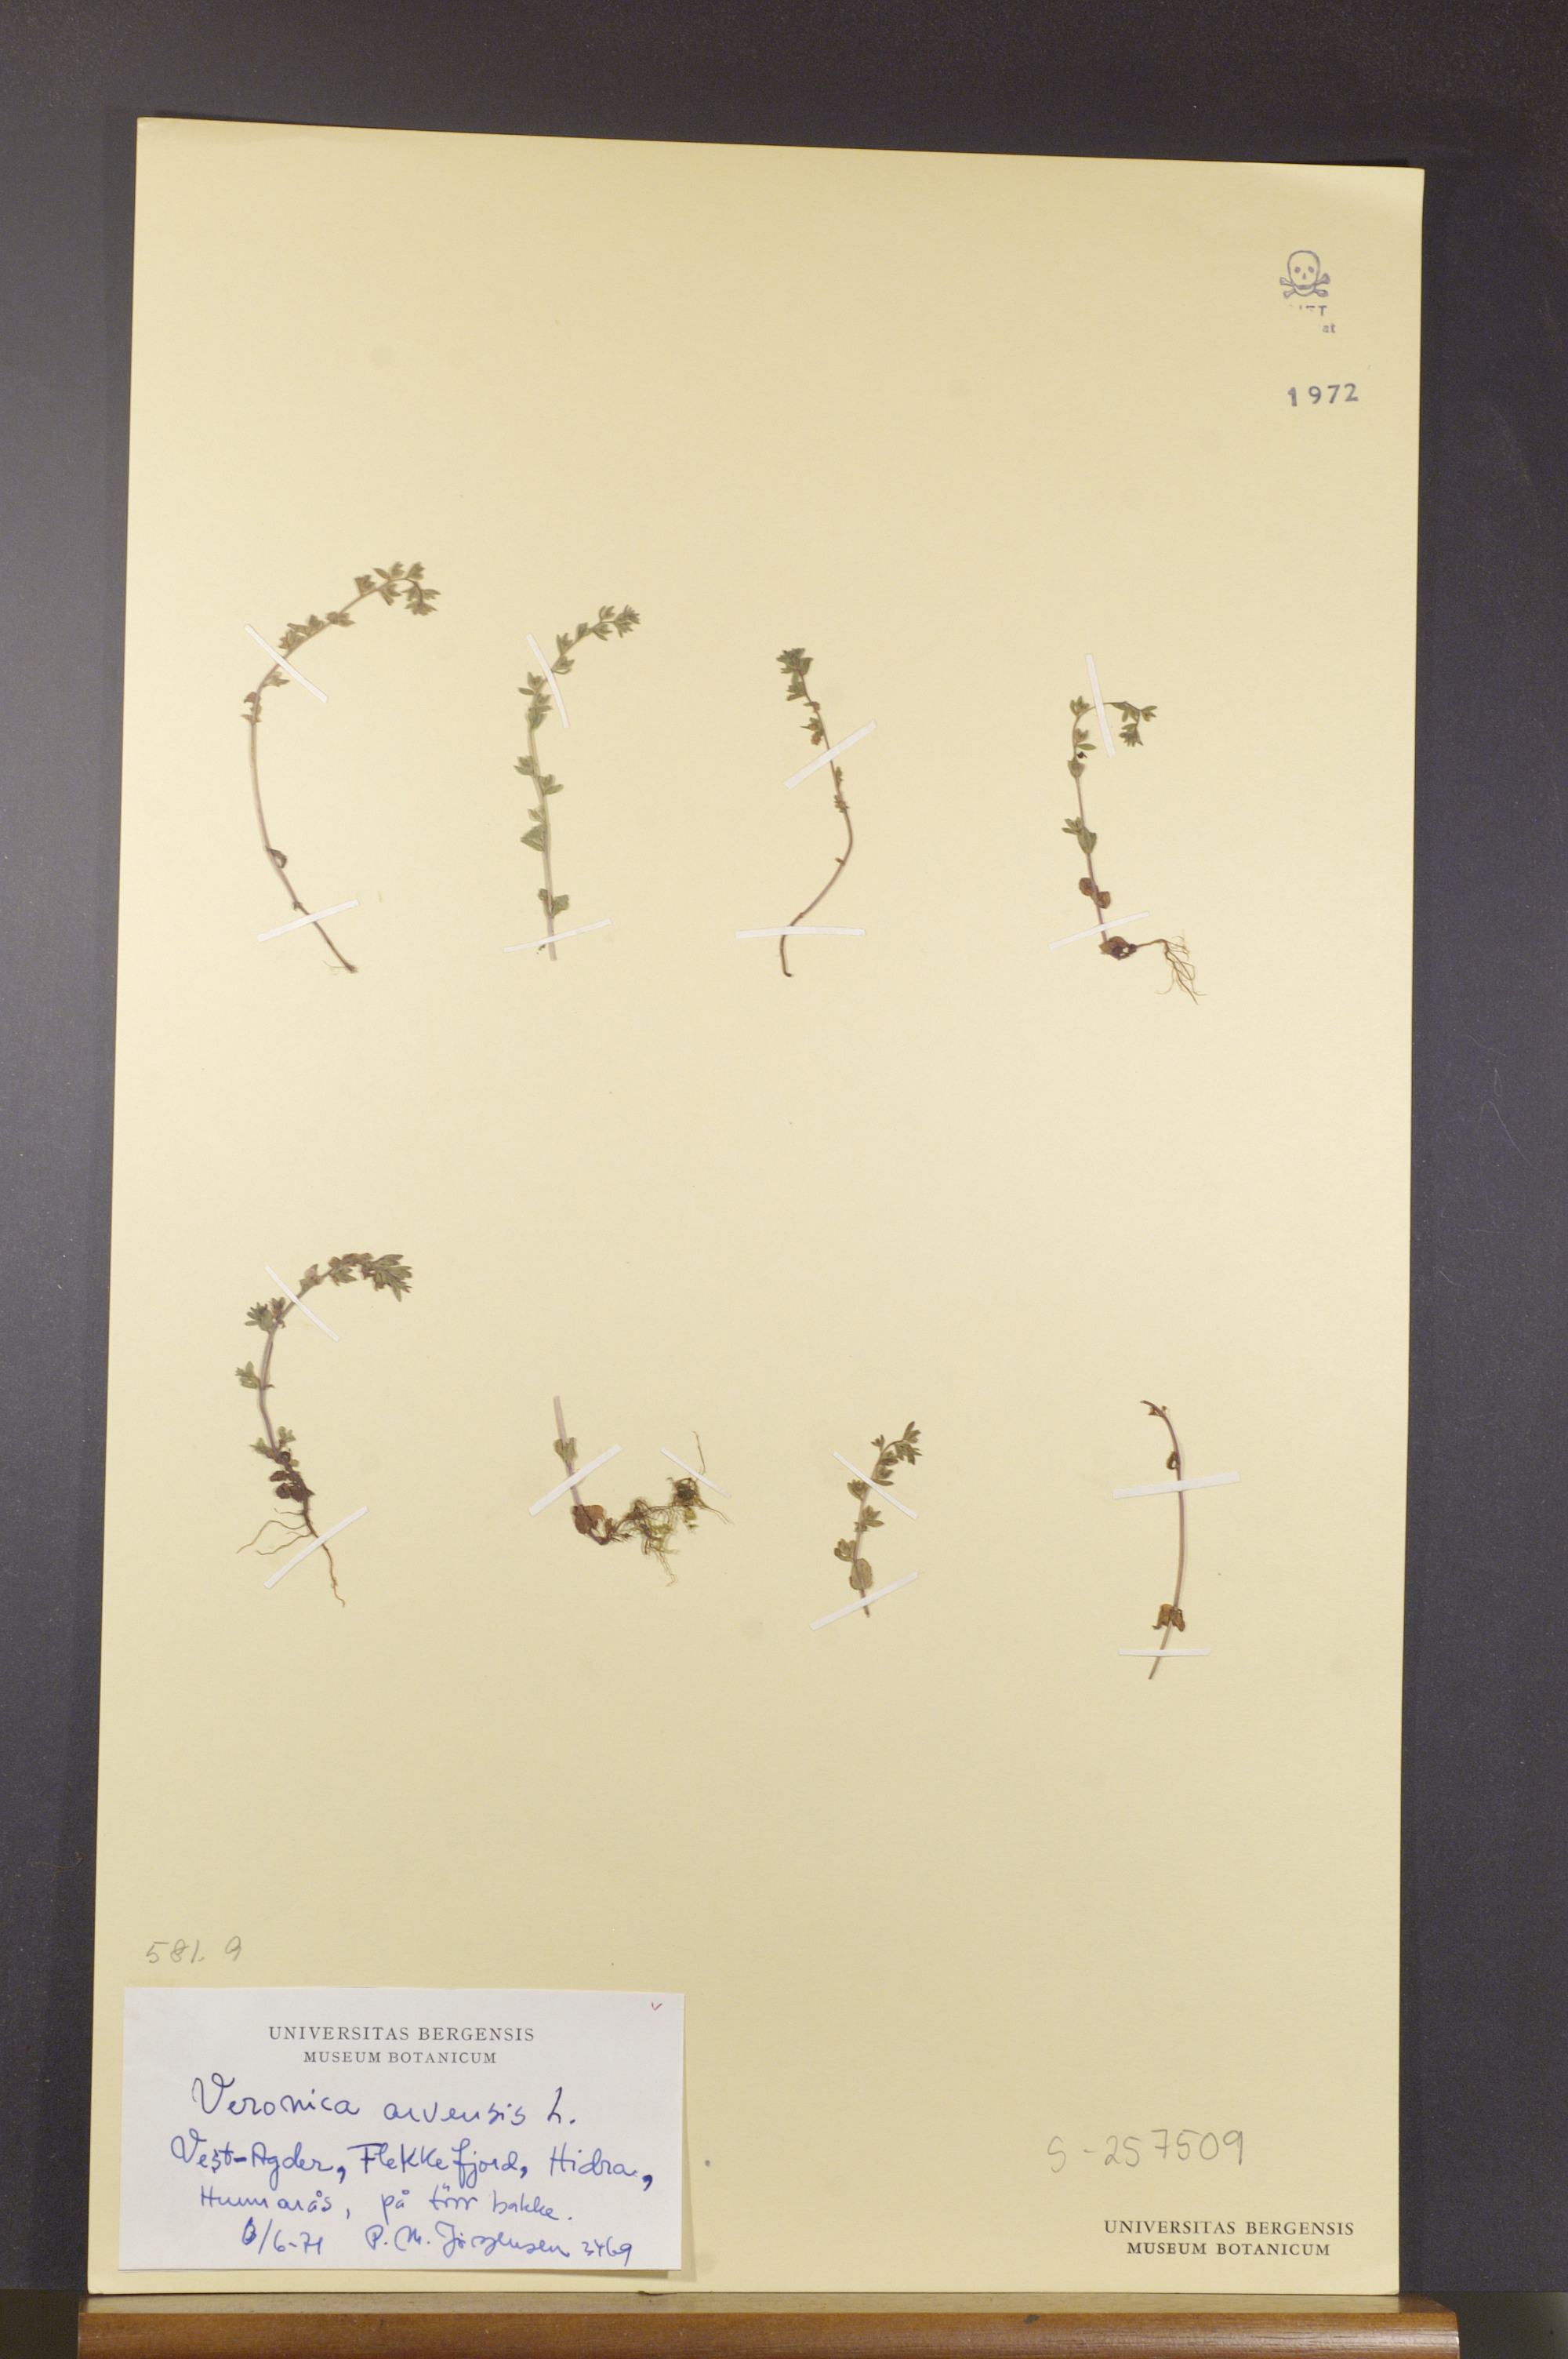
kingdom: Plantae
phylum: Tracheophyta
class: Magnoliopsida
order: Lamiales
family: Plantaginaceae
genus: Veronica
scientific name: Veronica arvensis
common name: Corn speedwell
